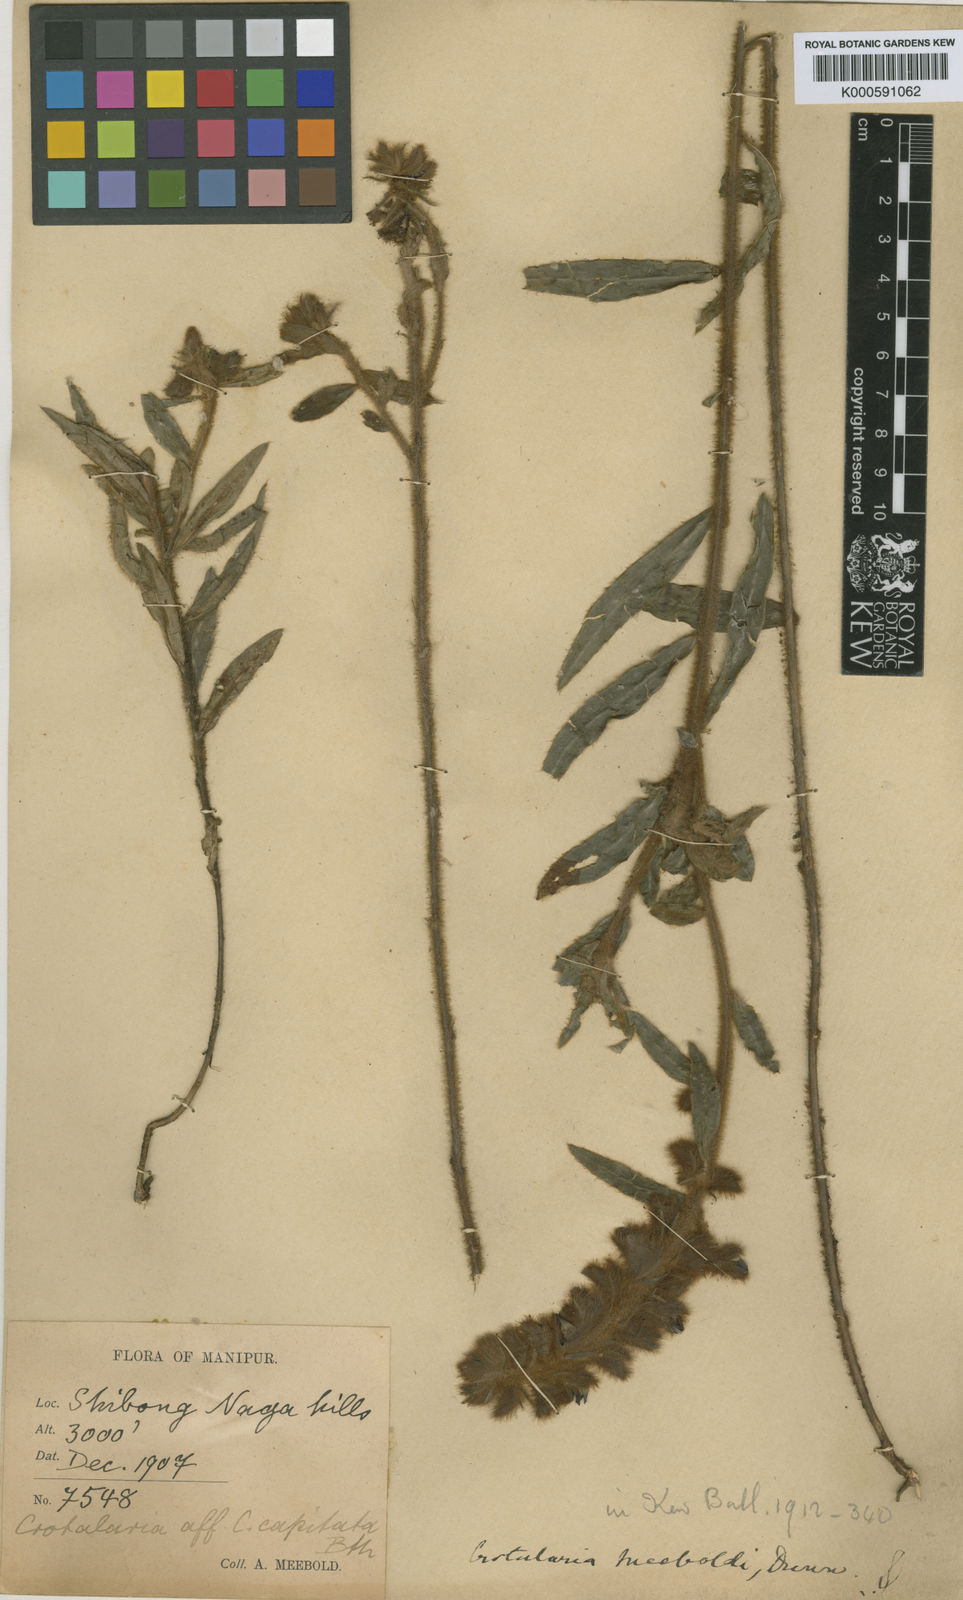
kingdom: Plantae
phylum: Tracheophyta
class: Magnoliopsida
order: Fabales
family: Fabaceae
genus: Crotalaria
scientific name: Crotalaria meeboldii
